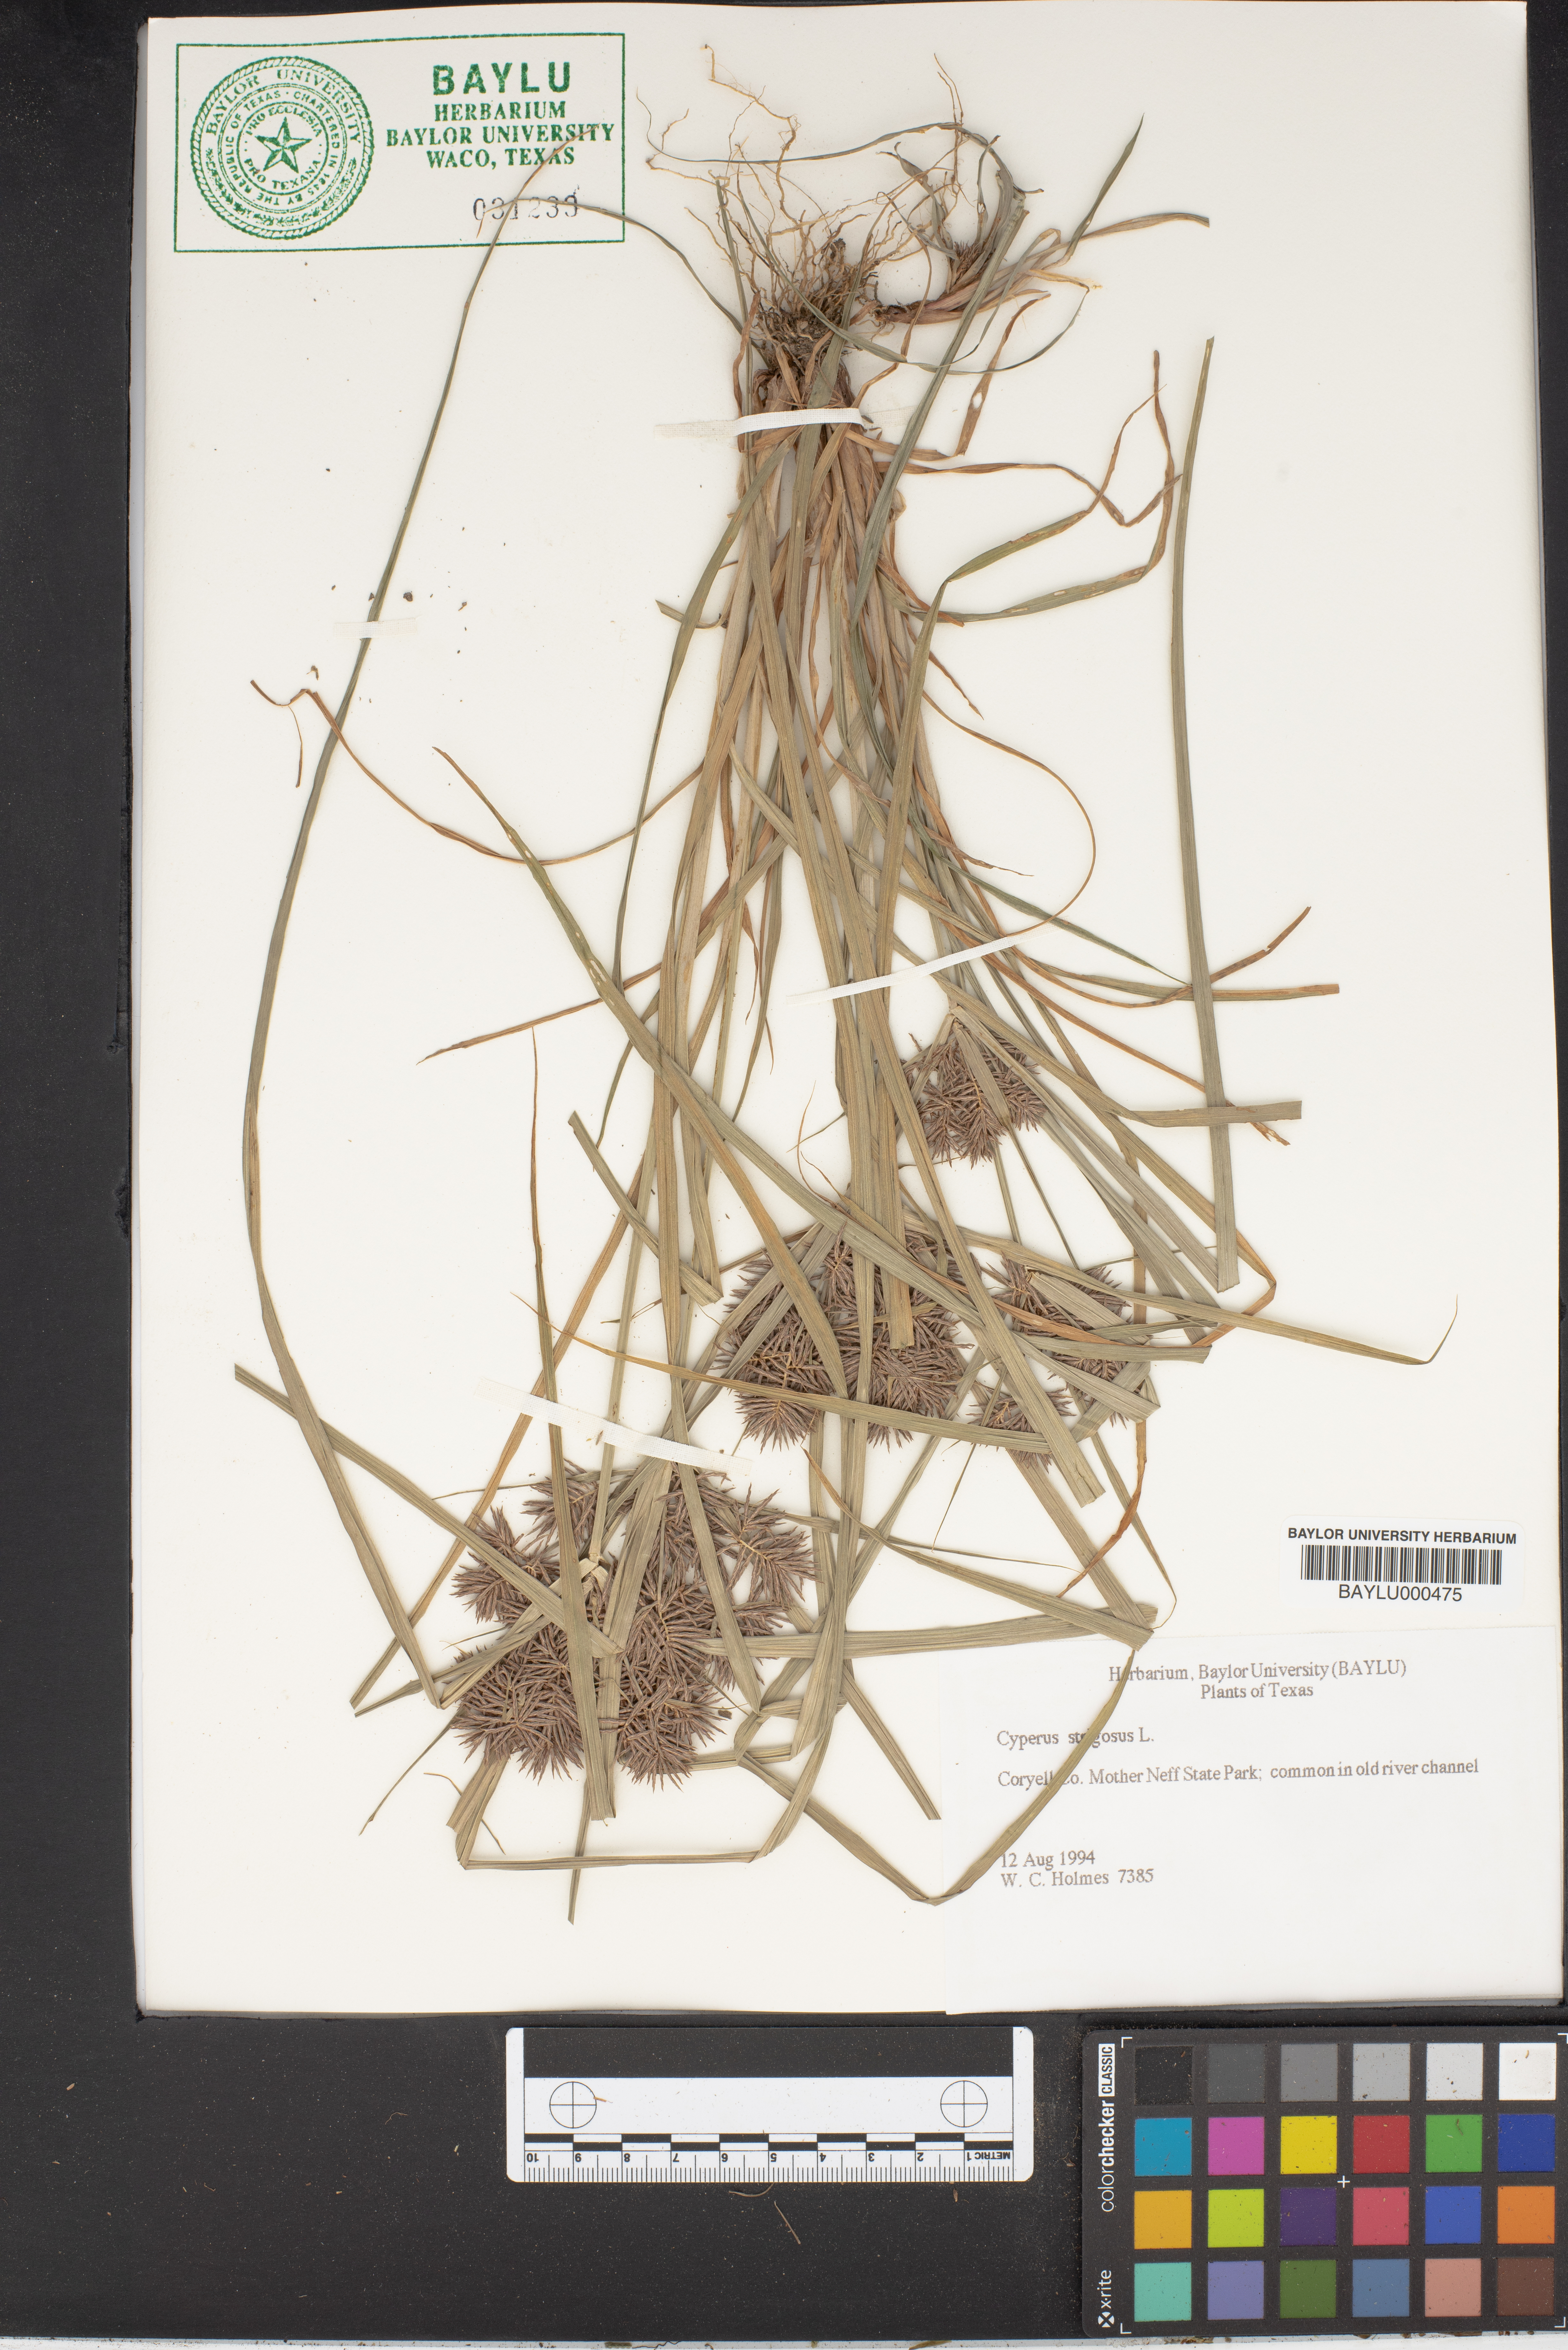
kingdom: Plantae
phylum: Tracheophyta
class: Liliopsida
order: Poales
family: Cyperaceae
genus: Cyperus
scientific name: Cyperus strigosus
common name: False nutsedge
